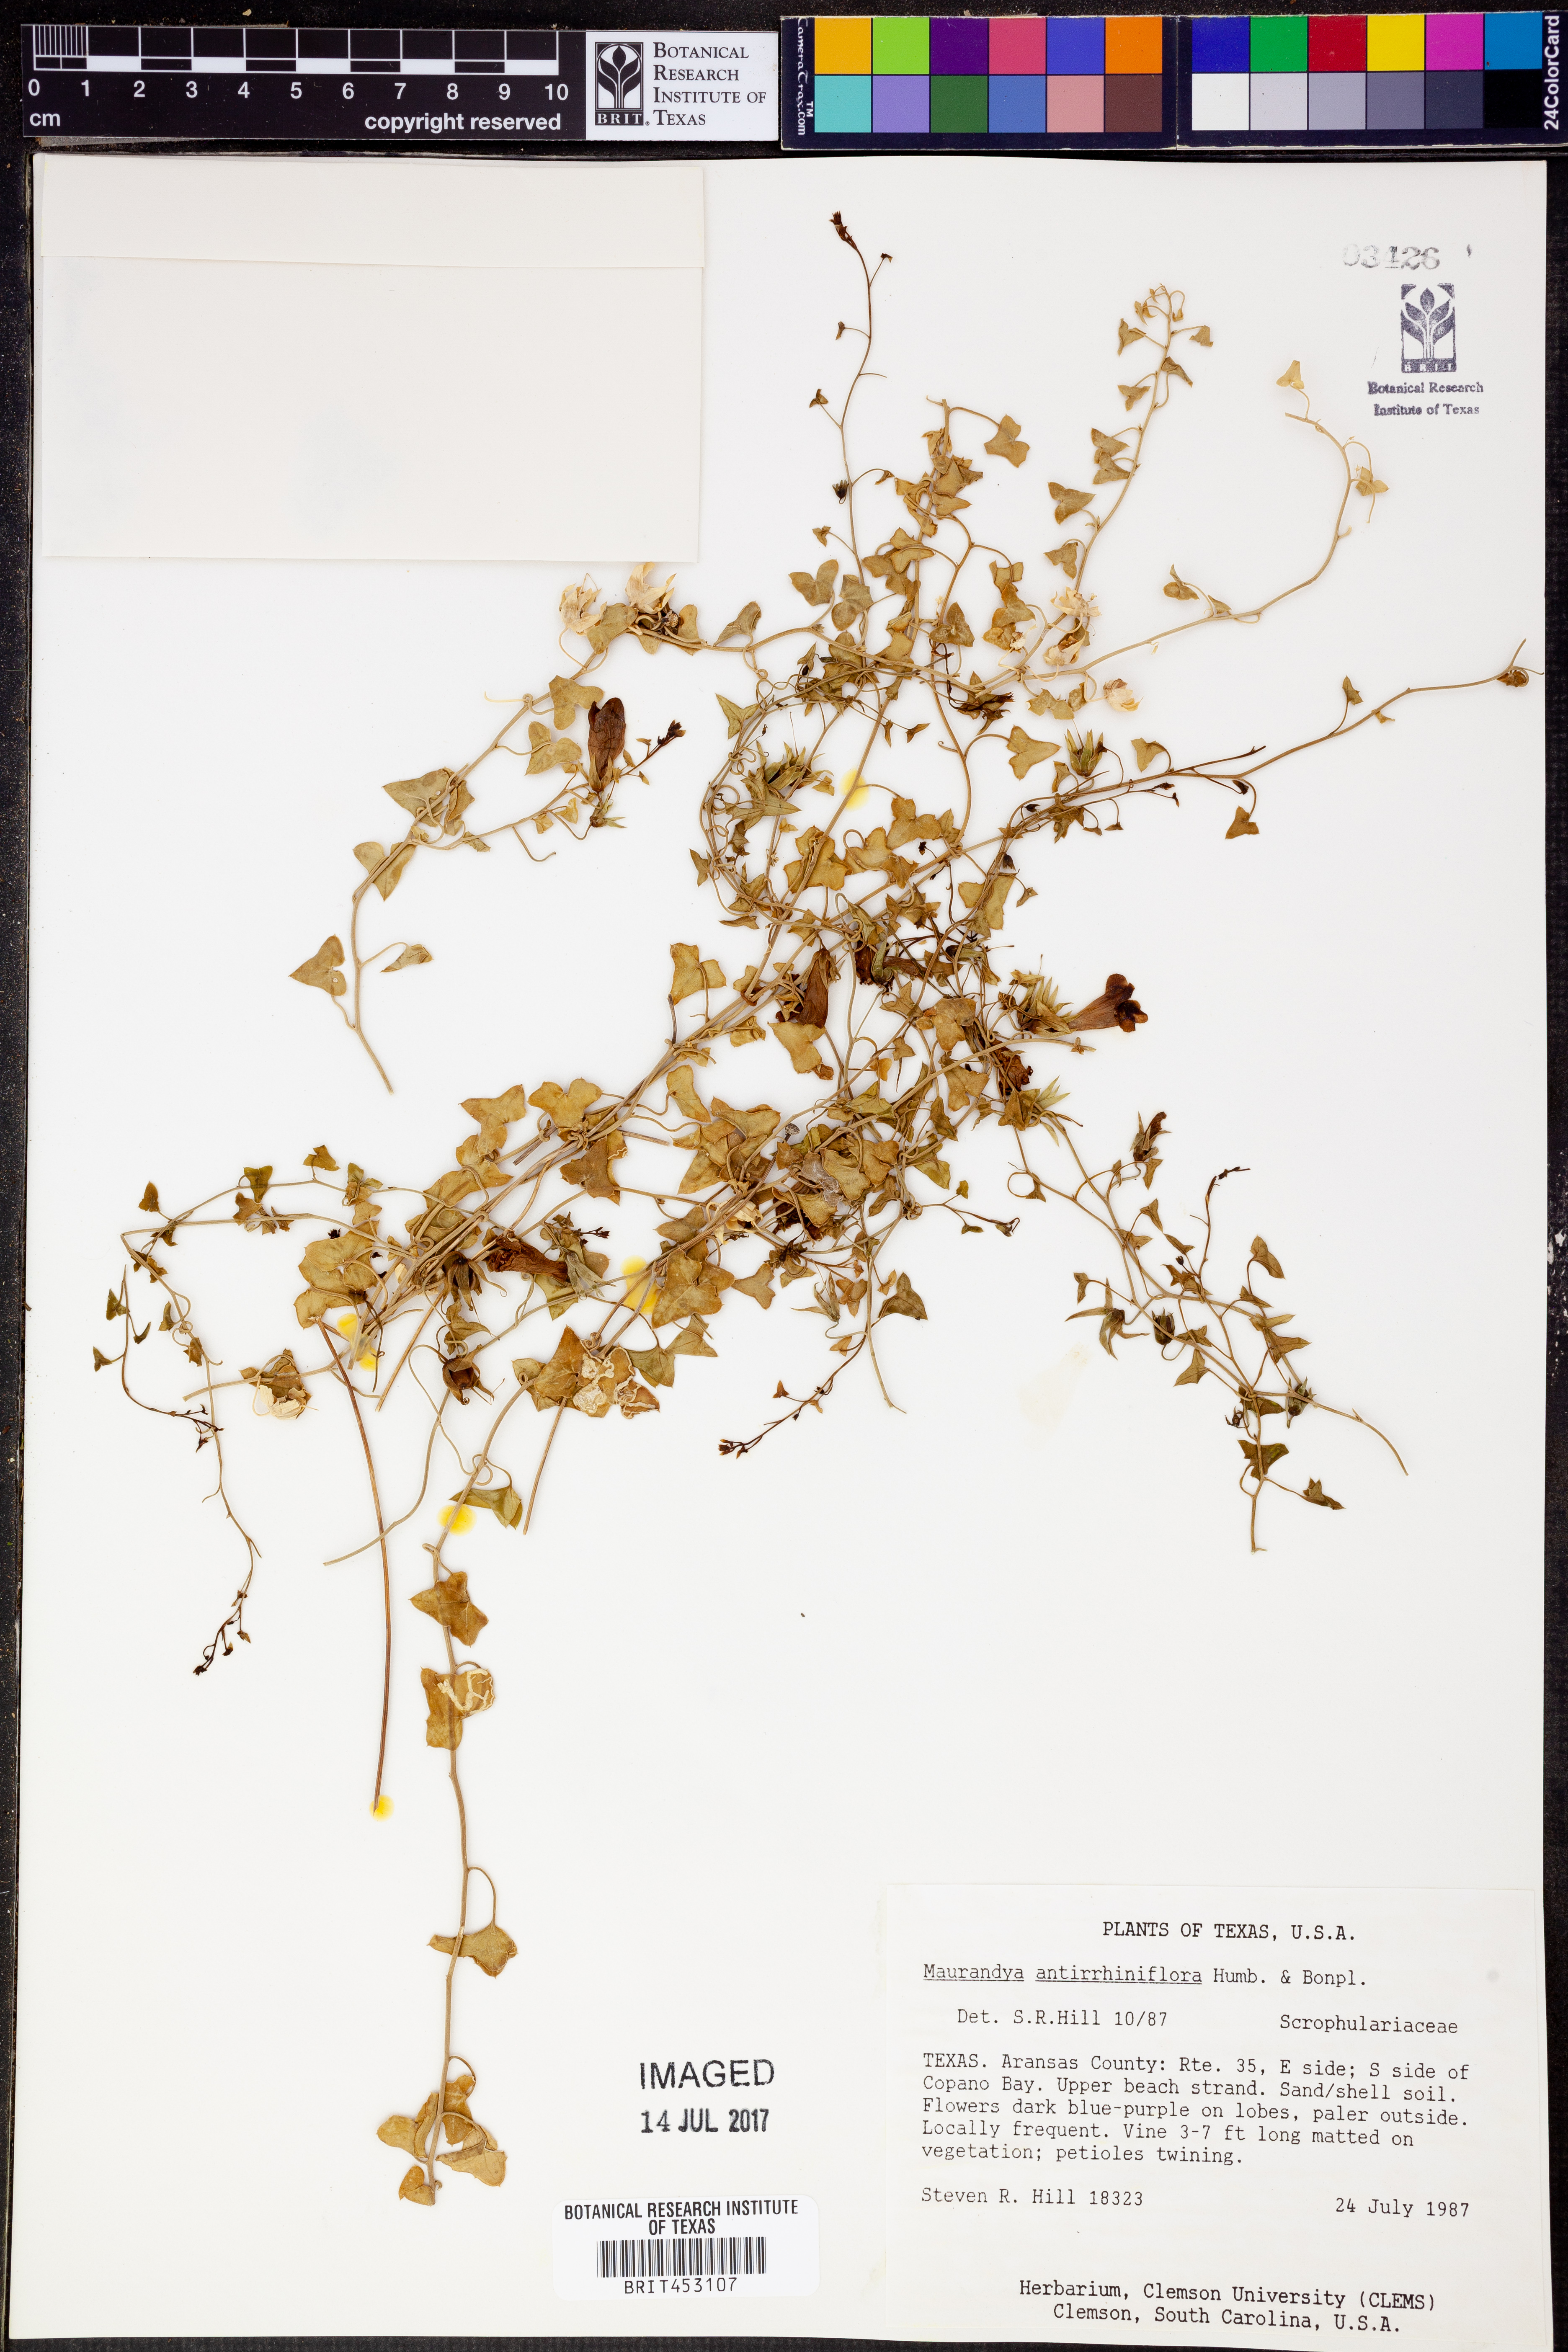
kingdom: Plantae
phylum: Tracheophyta
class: Magnoliopsida
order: Lamiales
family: Plantaginaceae
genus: Maurandella
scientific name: Maurandella antirrhiniflora
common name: Violet twining-snapdragon
